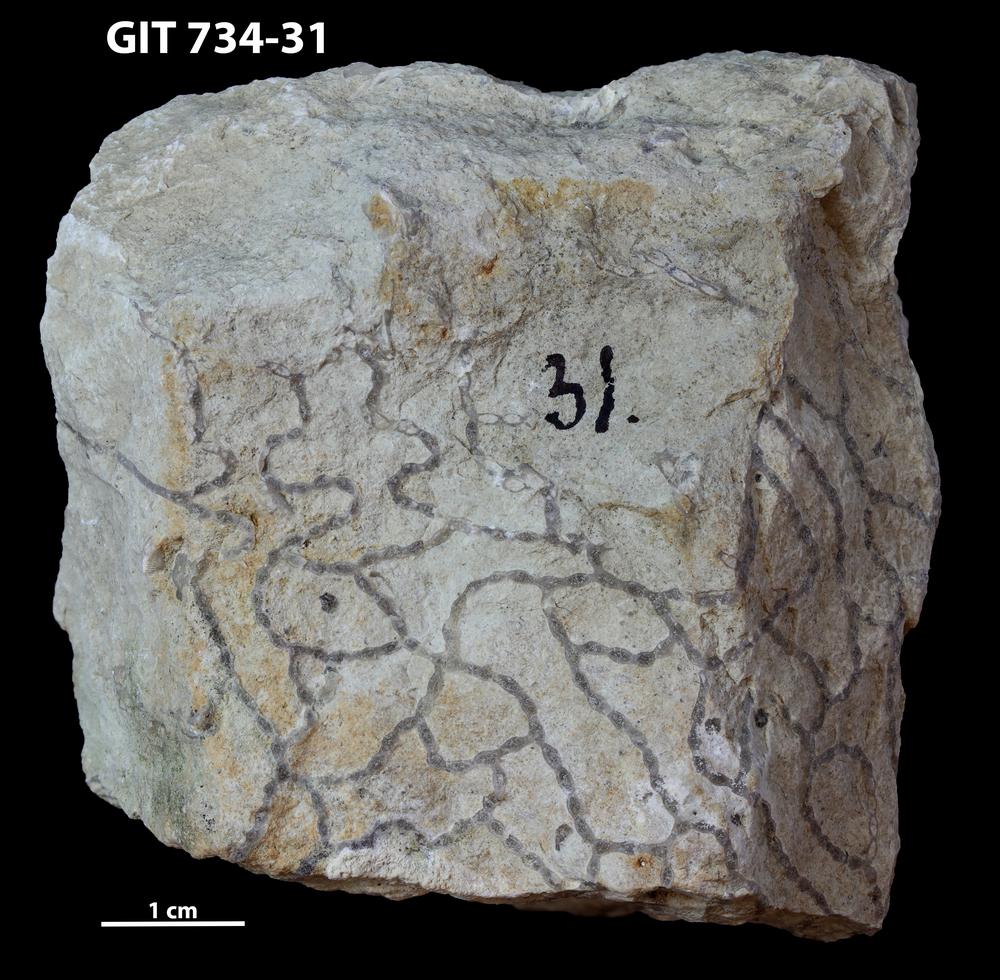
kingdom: Animalia
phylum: Cnidaria
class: Anthozoa
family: Halysitidae
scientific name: Halysitidae
